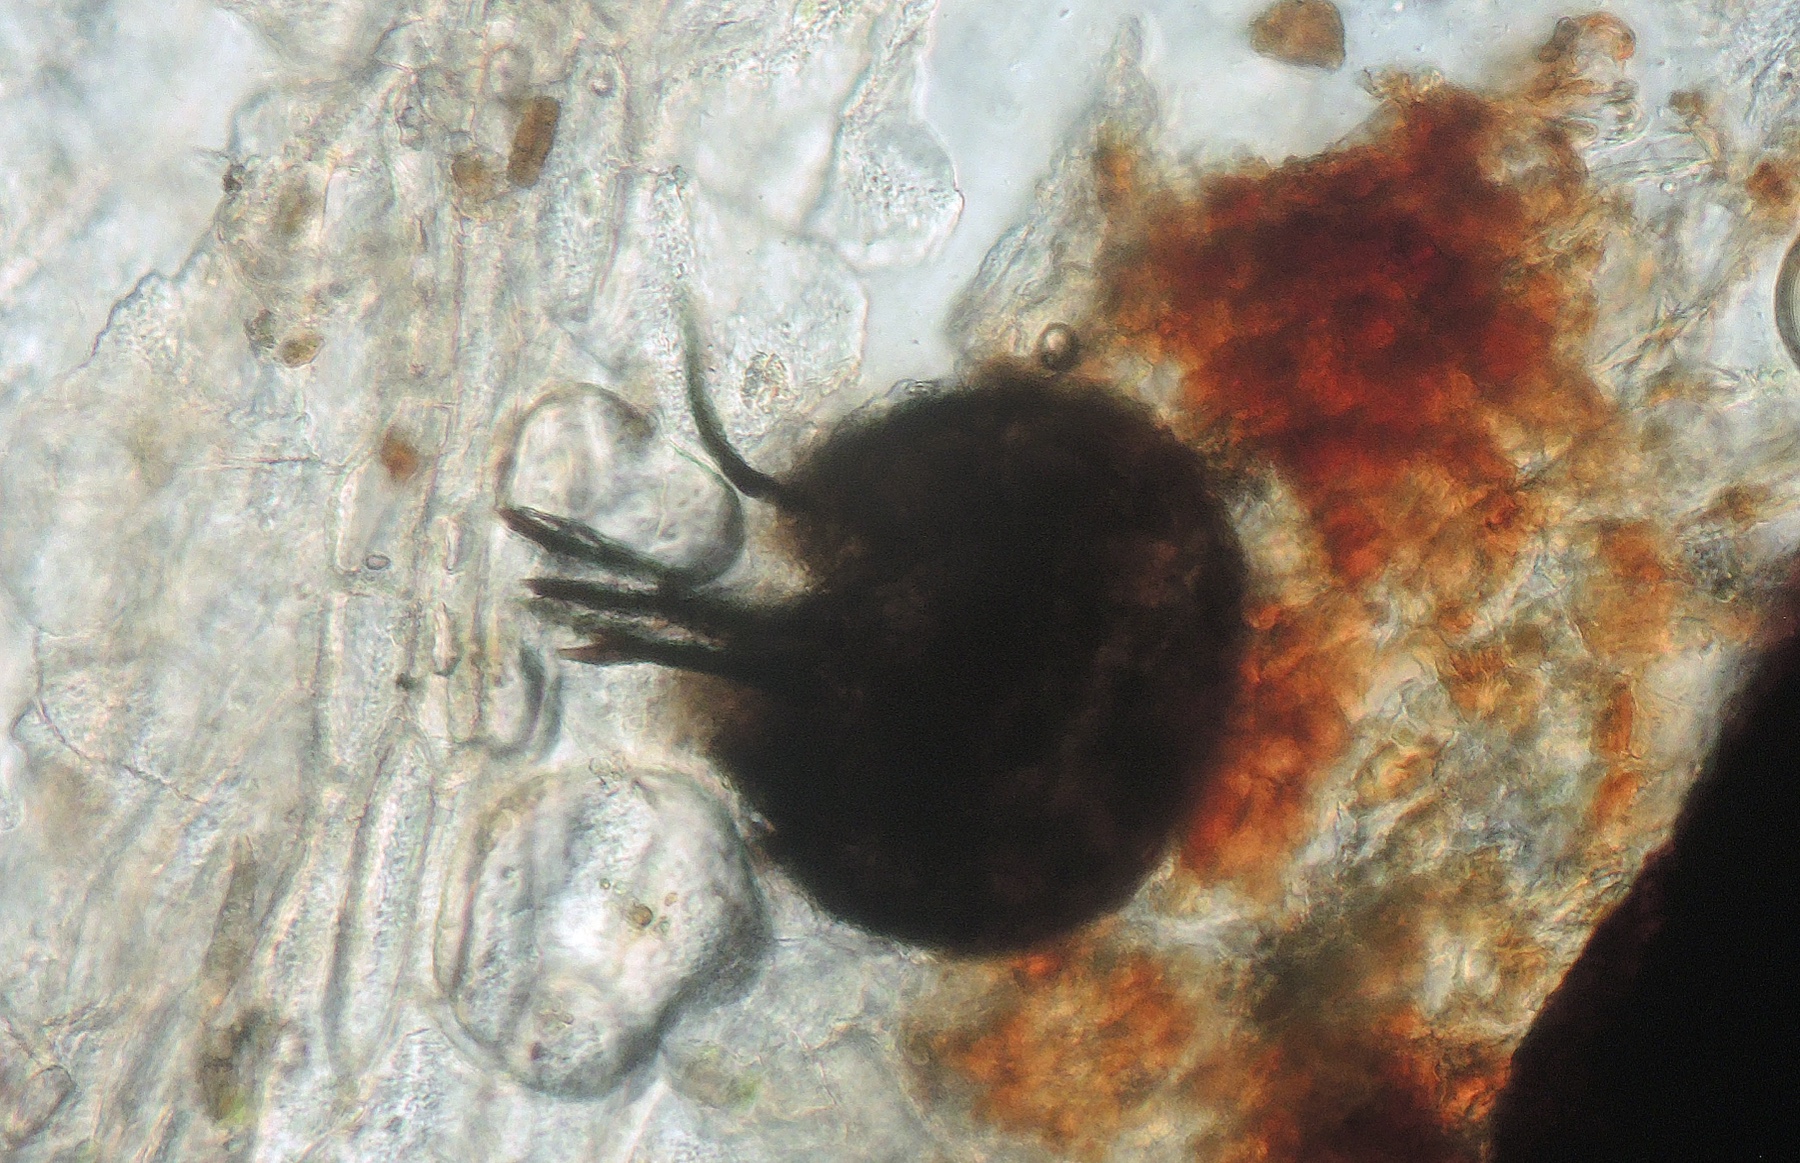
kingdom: Fungi
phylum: Ascomycota
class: Dothideomycetes
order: Venturiales
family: Venturiaceae
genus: Venturia
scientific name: Venturia ditricha
